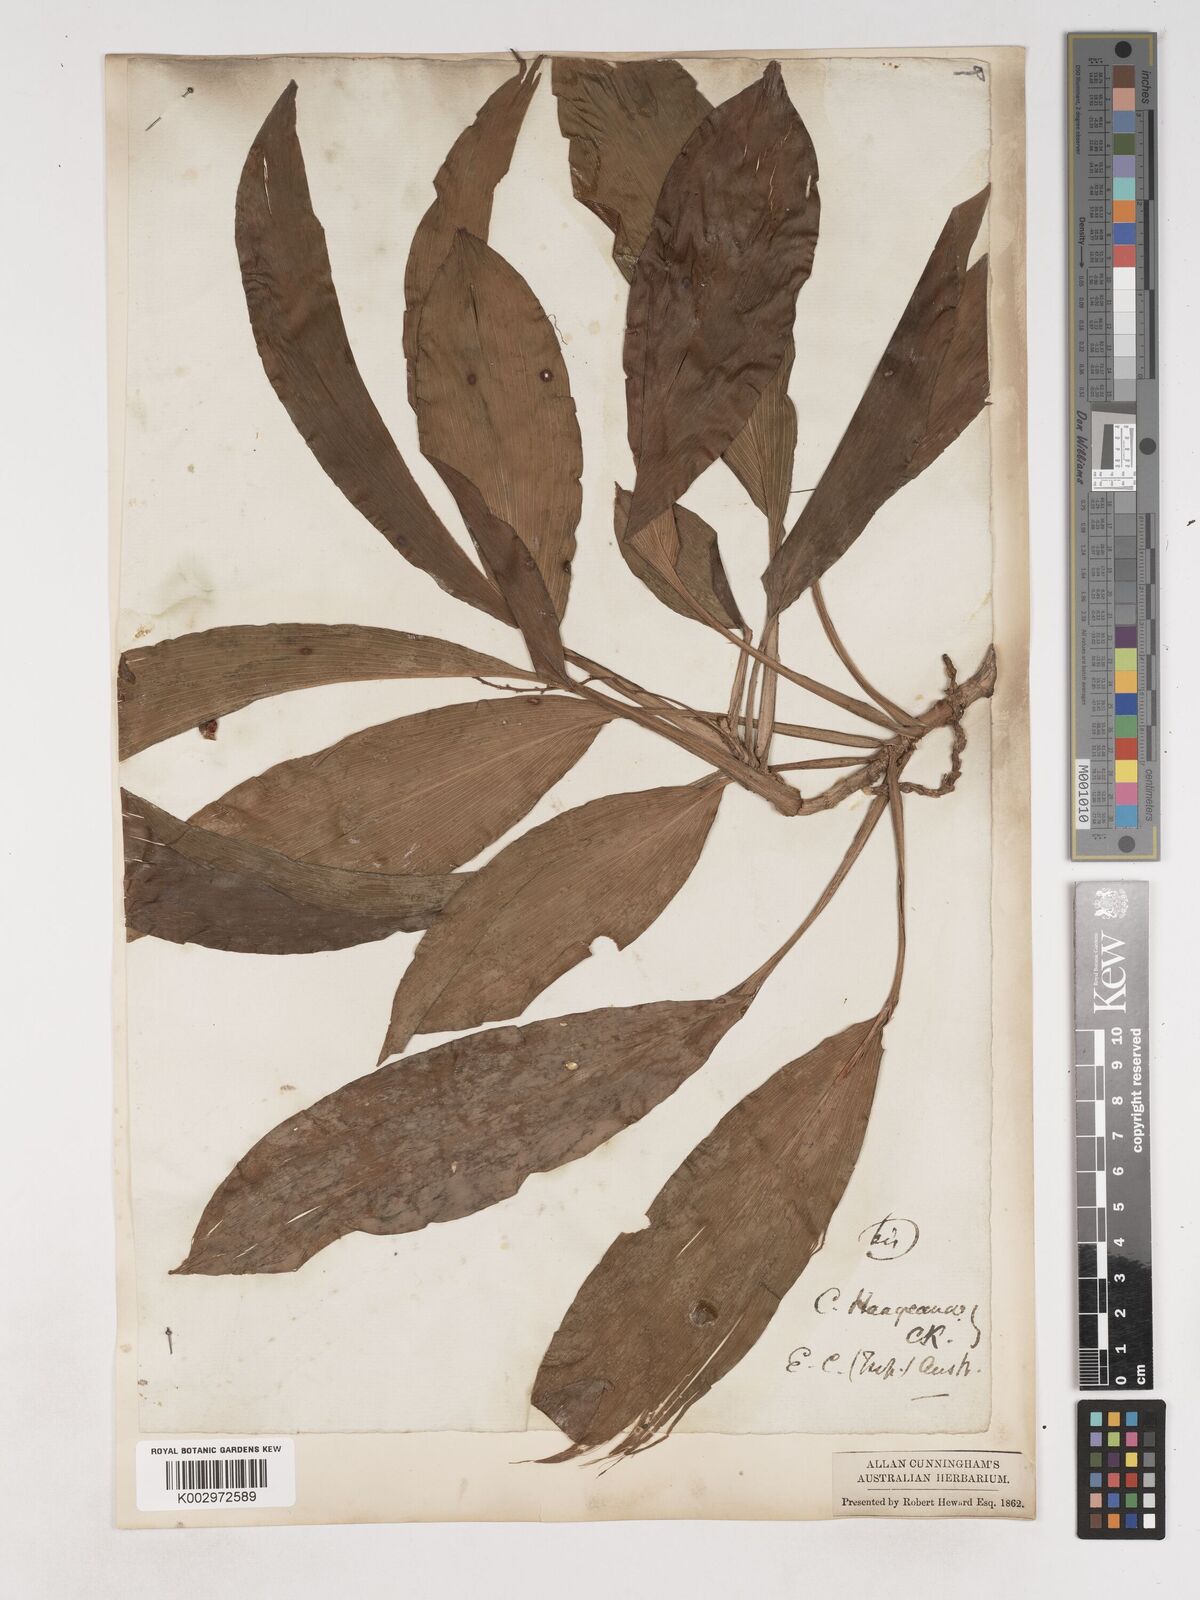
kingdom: Plantae
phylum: Tracheophyta
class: Liliopsida
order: Asparagales
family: Asparagaceae
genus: Cordyline
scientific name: Cordyline murchisoniae
